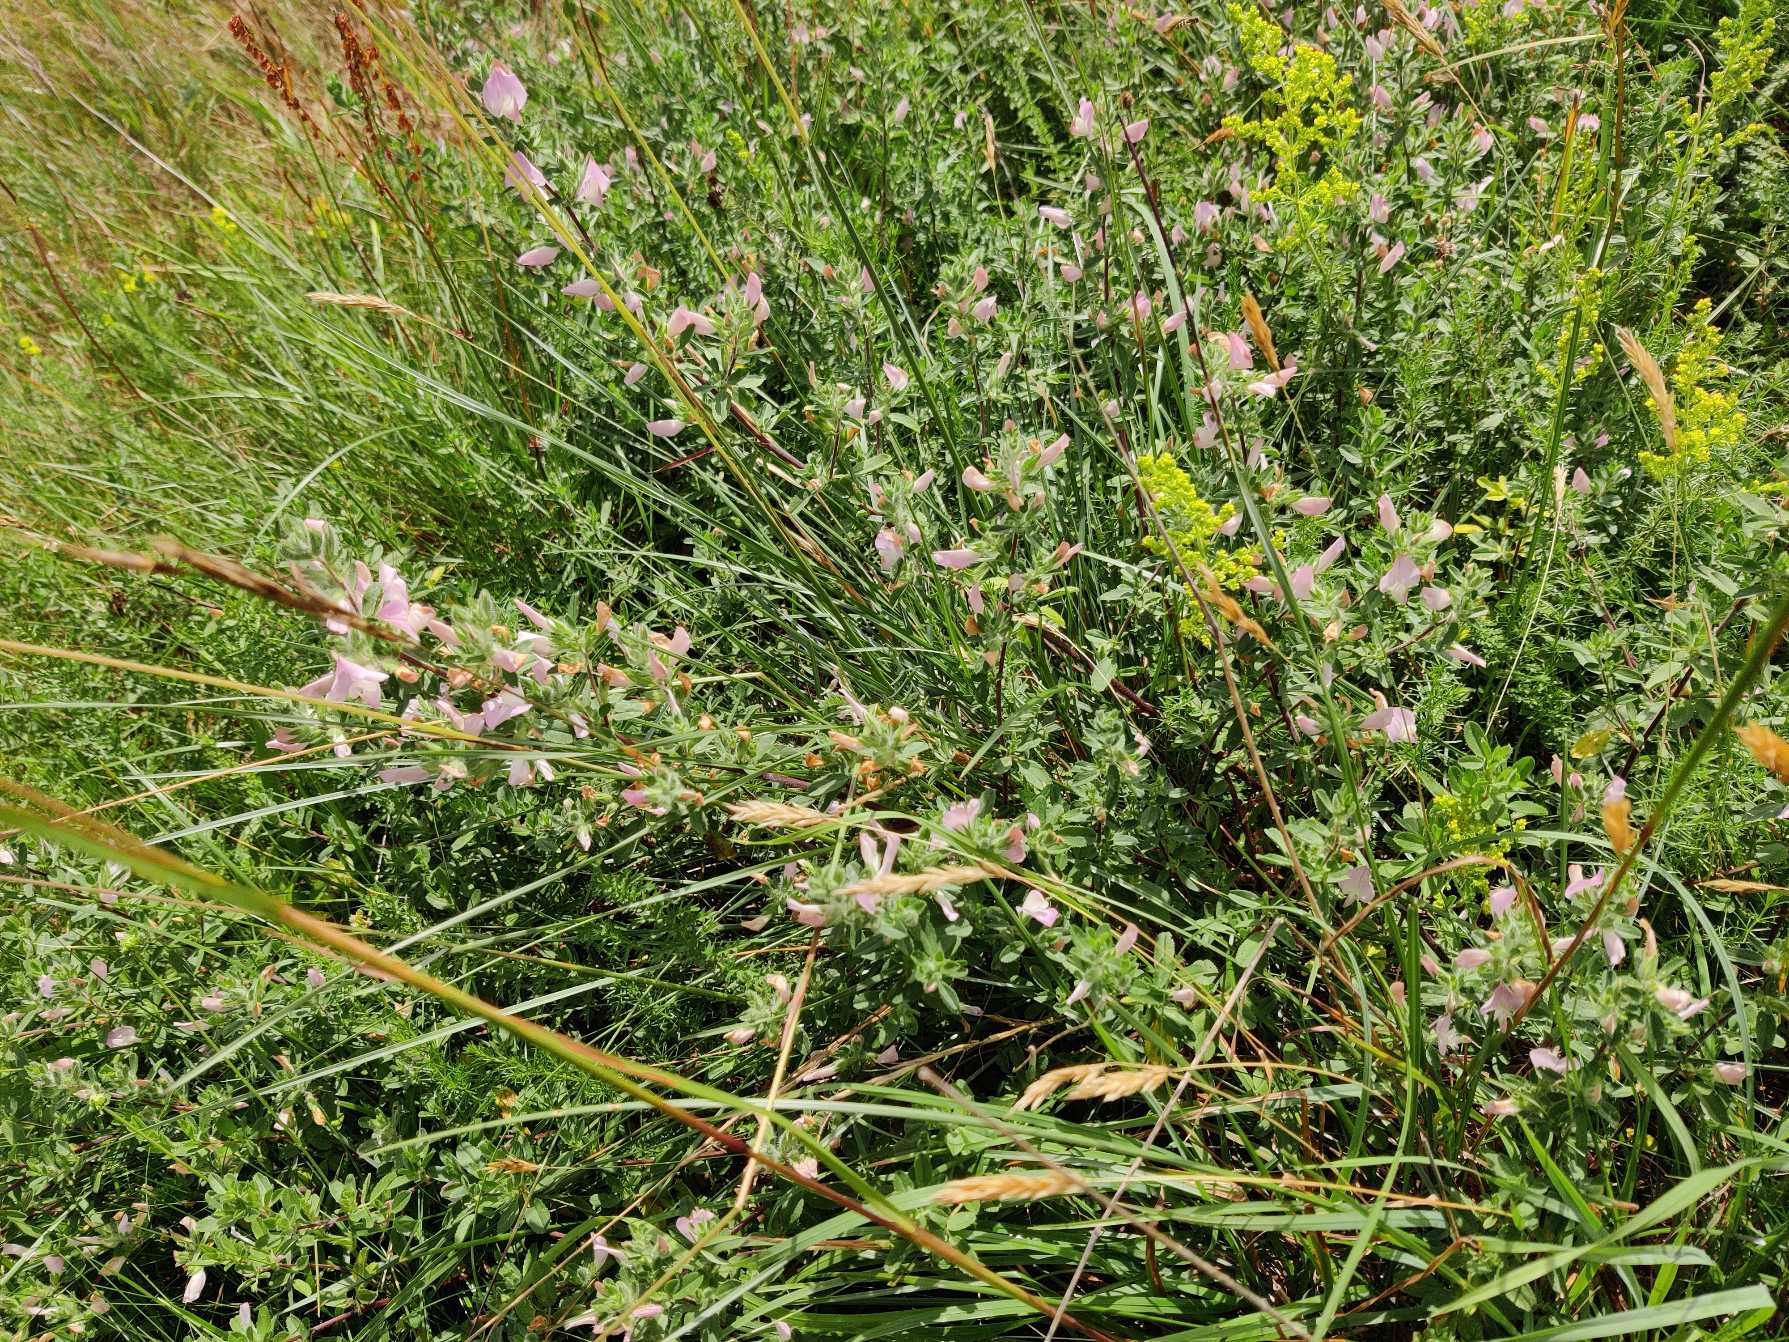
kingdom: Plantae
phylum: Tracheophyta
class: Magnoliopsida
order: Fabales
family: Fabaceae
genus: Ononis
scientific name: Ononis spinosa
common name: Mark-krageklo
